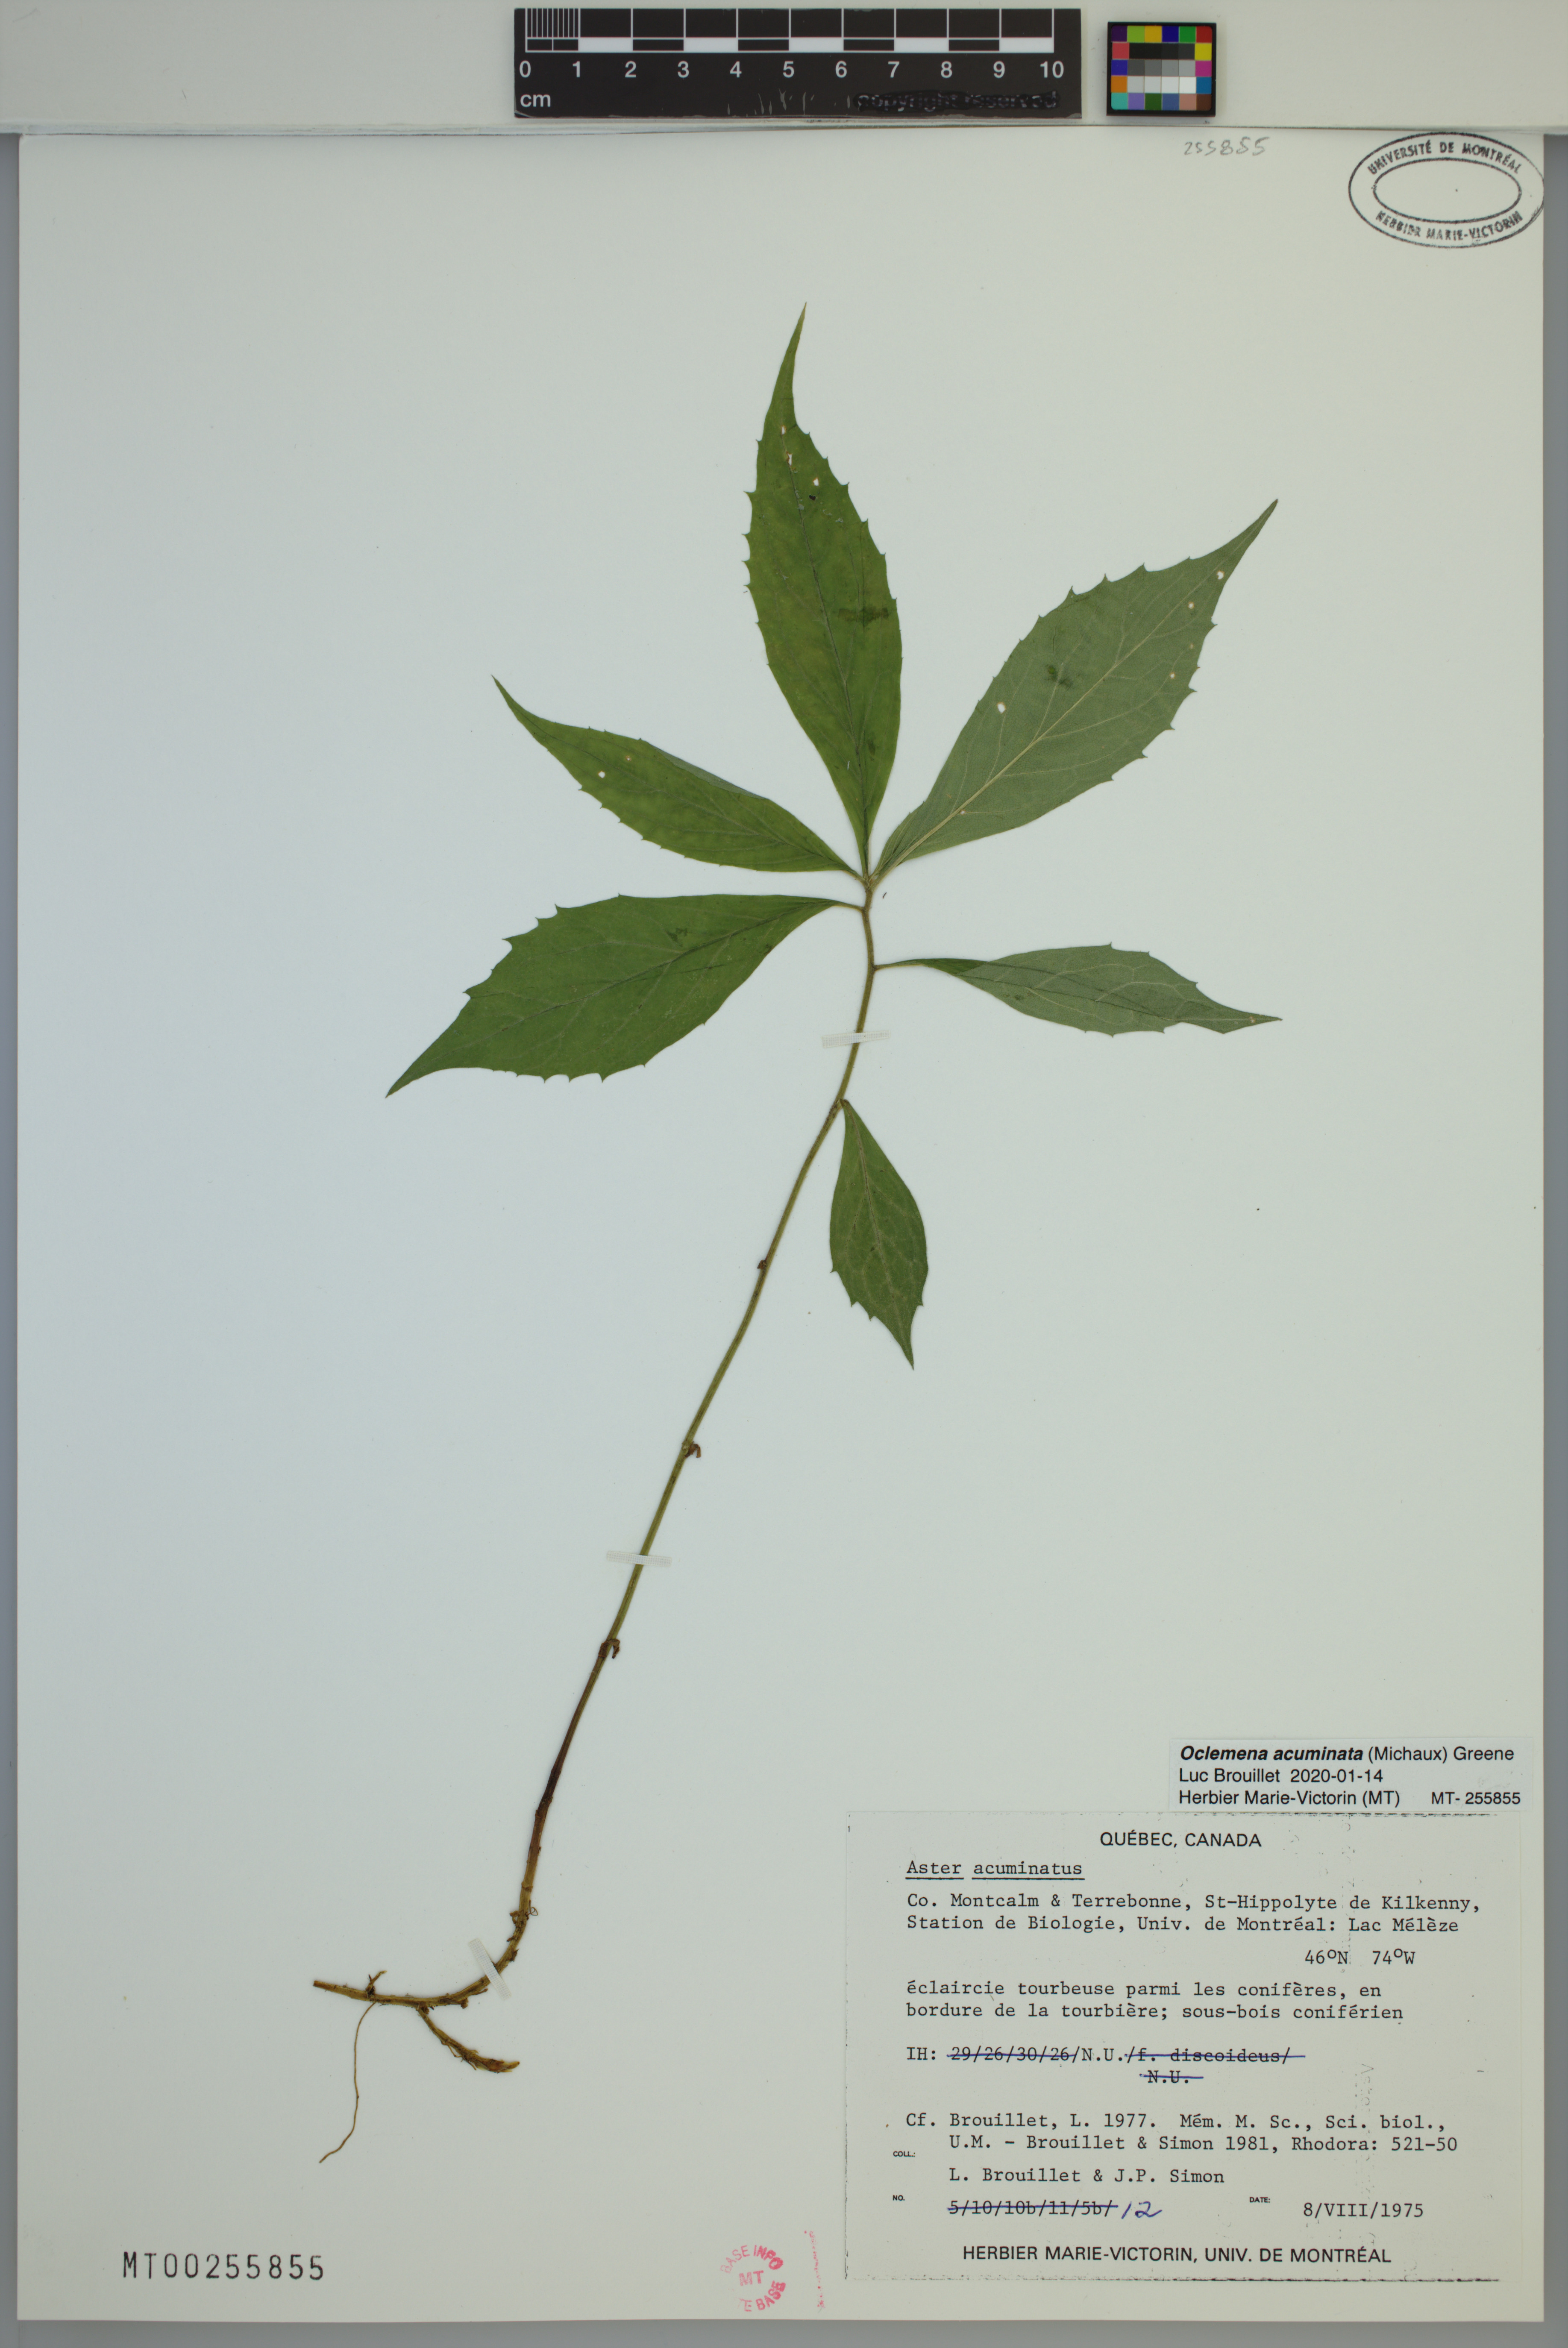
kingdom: Plantae
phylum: Tracheophyta
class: Magnoliopsida
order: Asterales
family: Asteraceae
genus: Oclemena
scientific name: Oclemena acuminata
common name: Mountain aster
